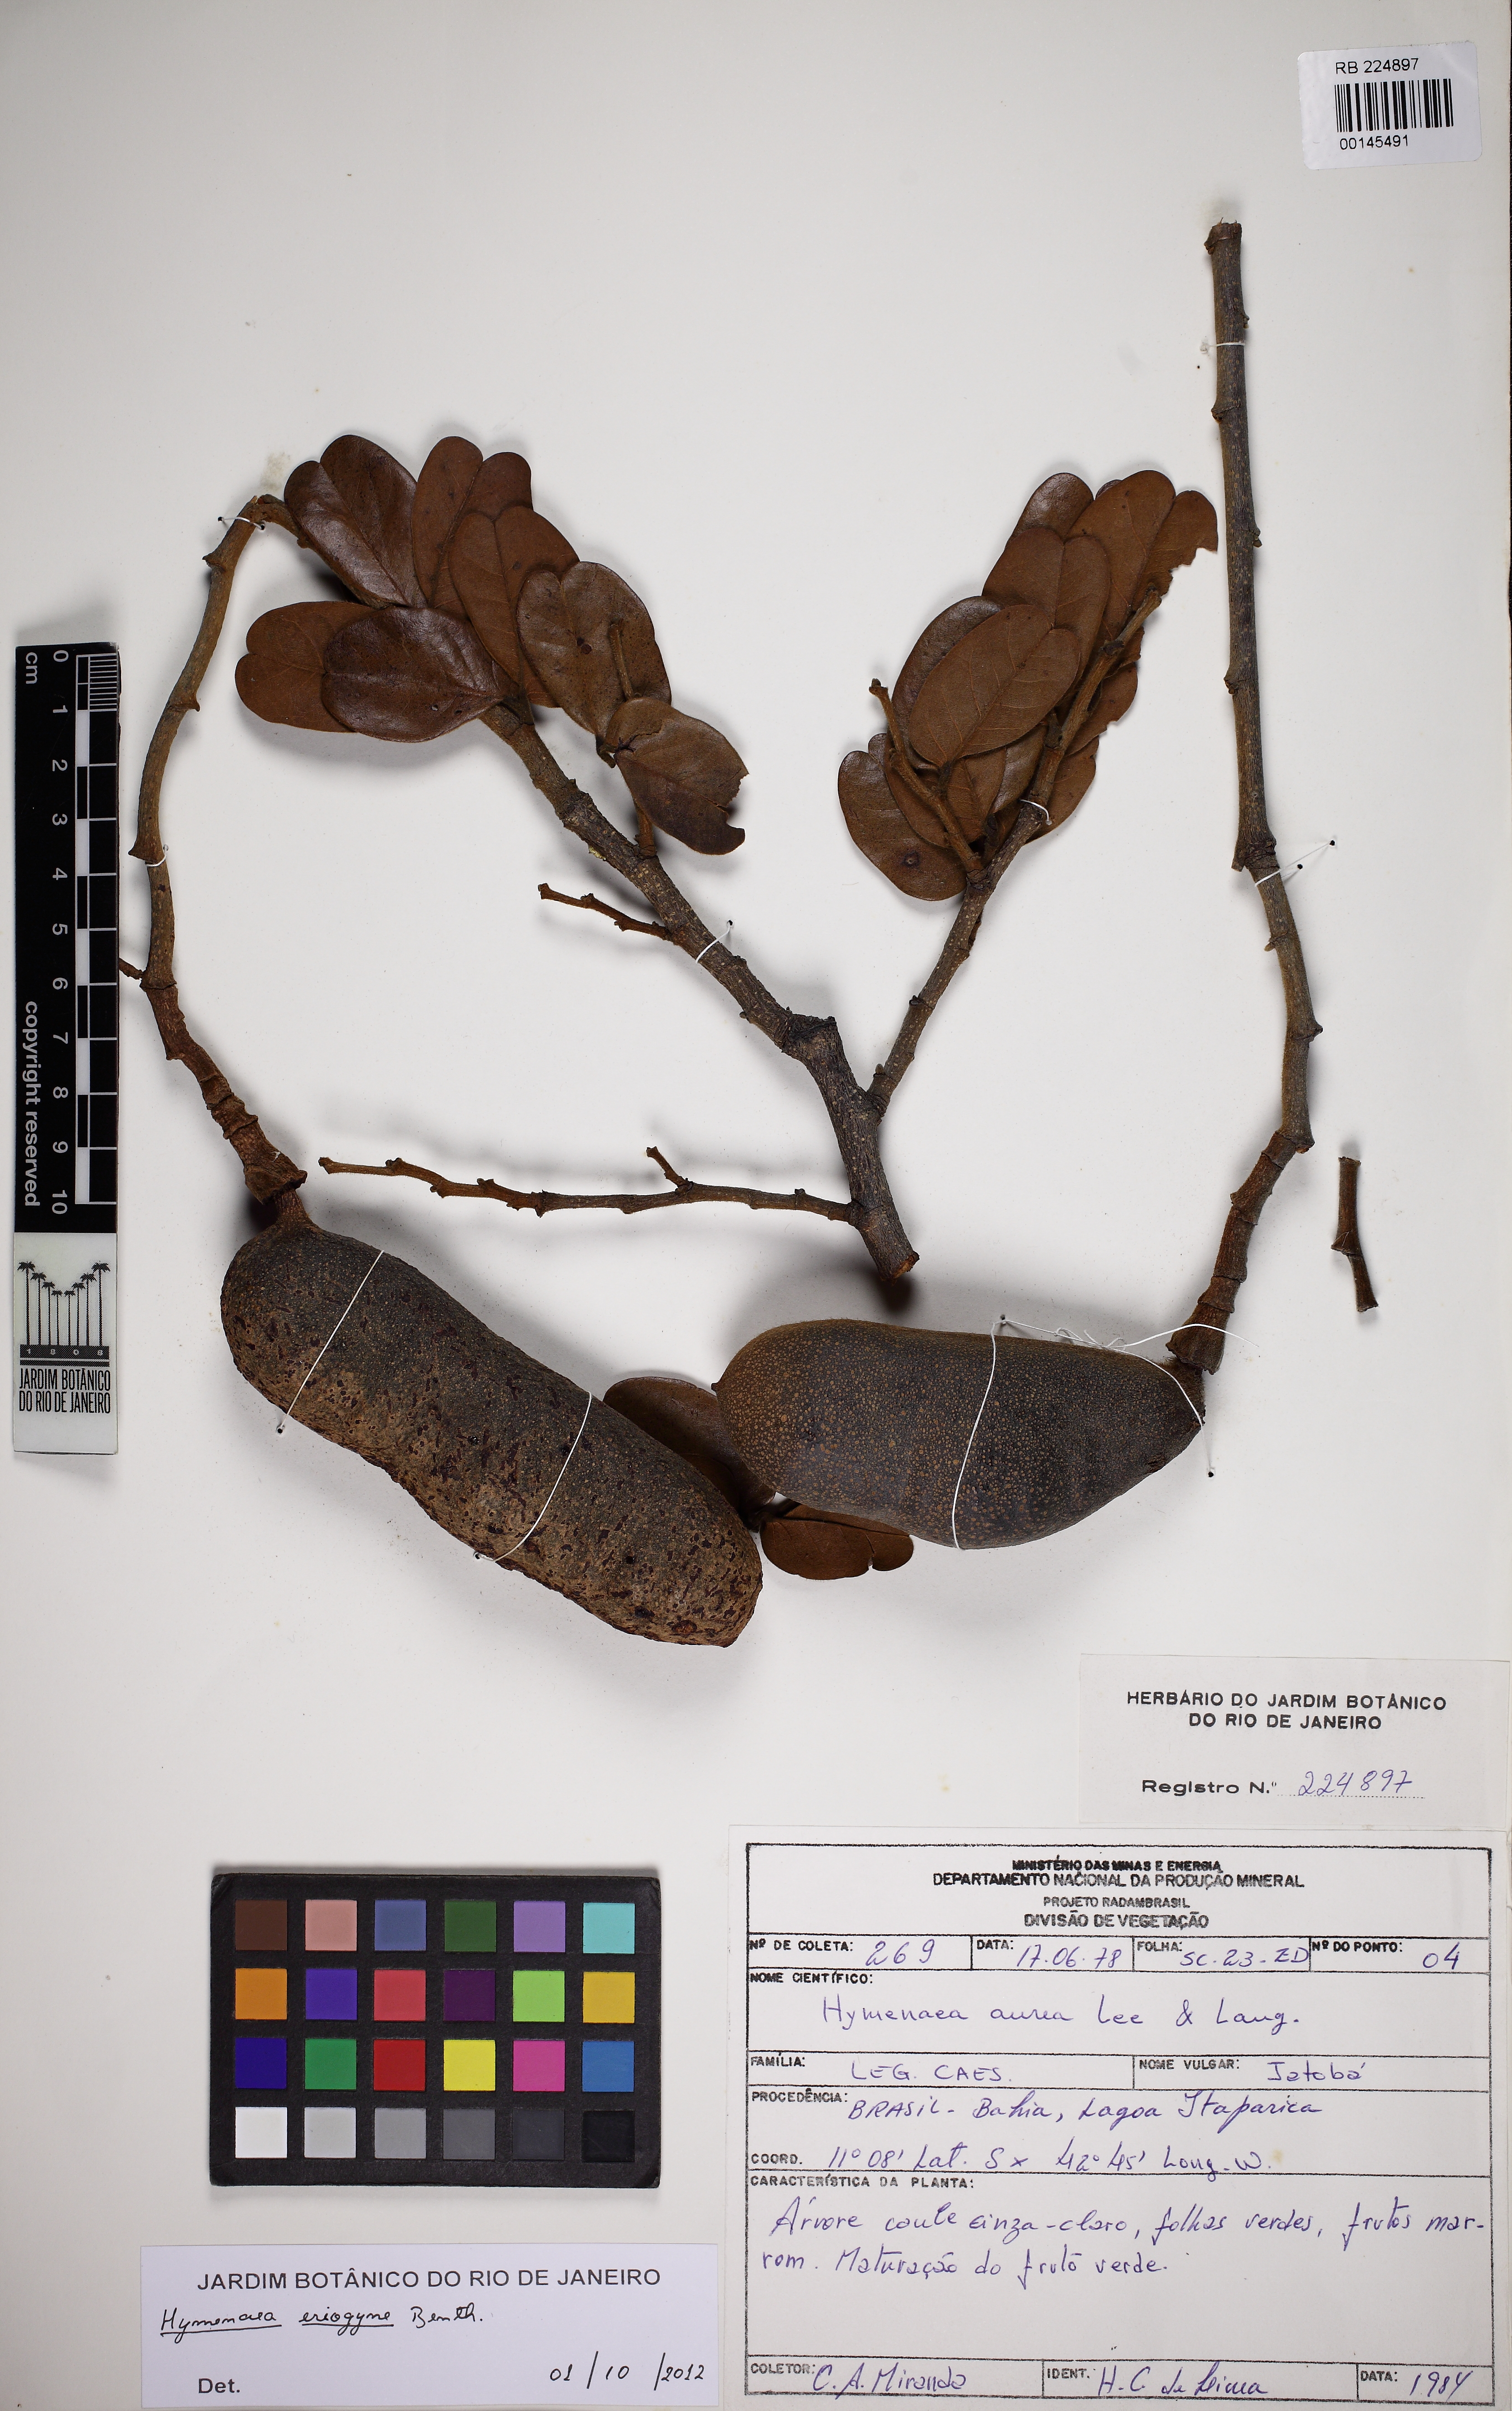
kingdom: Plantae
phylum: Tracheophyta
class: Magnoliopsida
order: Fabales
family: Fabaceae
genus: Hymenaea
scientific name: Hymenaea eriogyne
